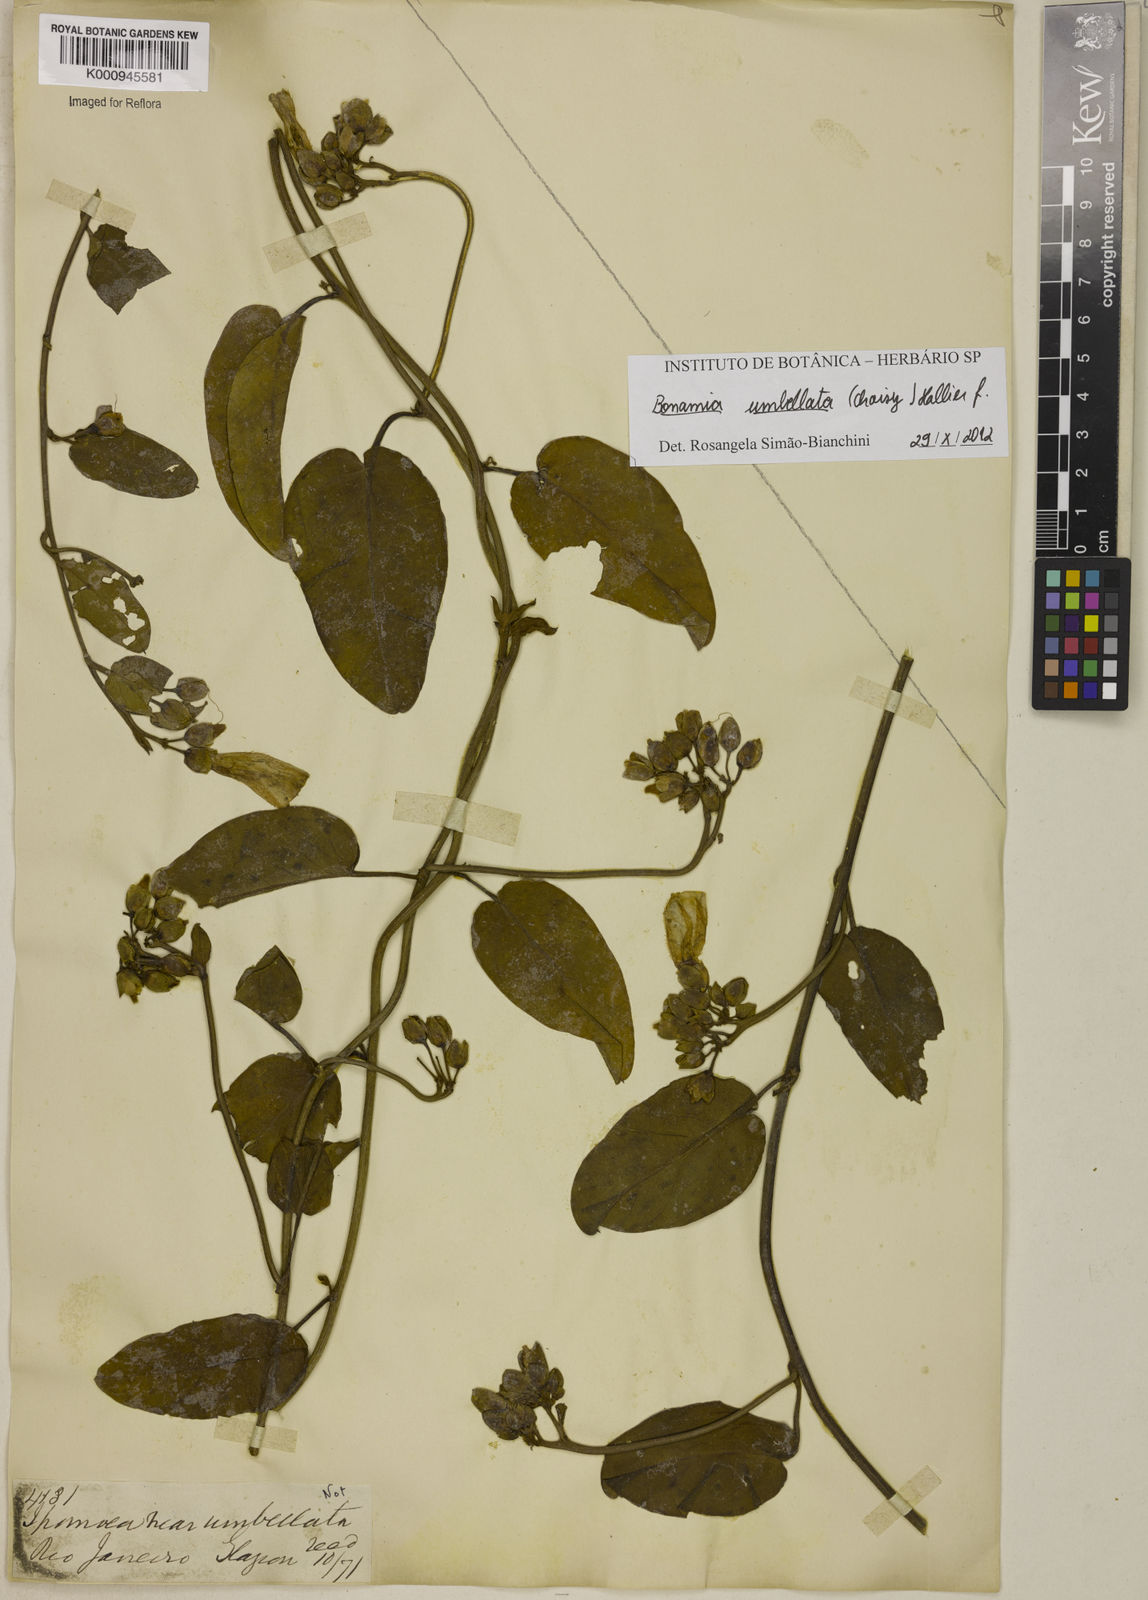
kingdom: Plantae
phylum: Tracheophyta
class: Magnoliopsida
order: Solanales
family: Convolvulaceae
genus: Bonamia
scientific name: Bonamia umbellata
